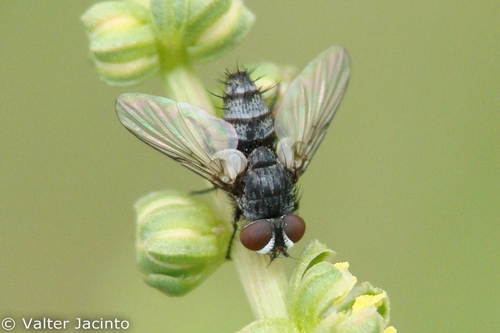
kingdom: Animalia
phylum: Arthropoda
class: Insecta
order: Diptera
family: Tachinidae
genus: Thrixion
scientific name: Thrixion aberrans
